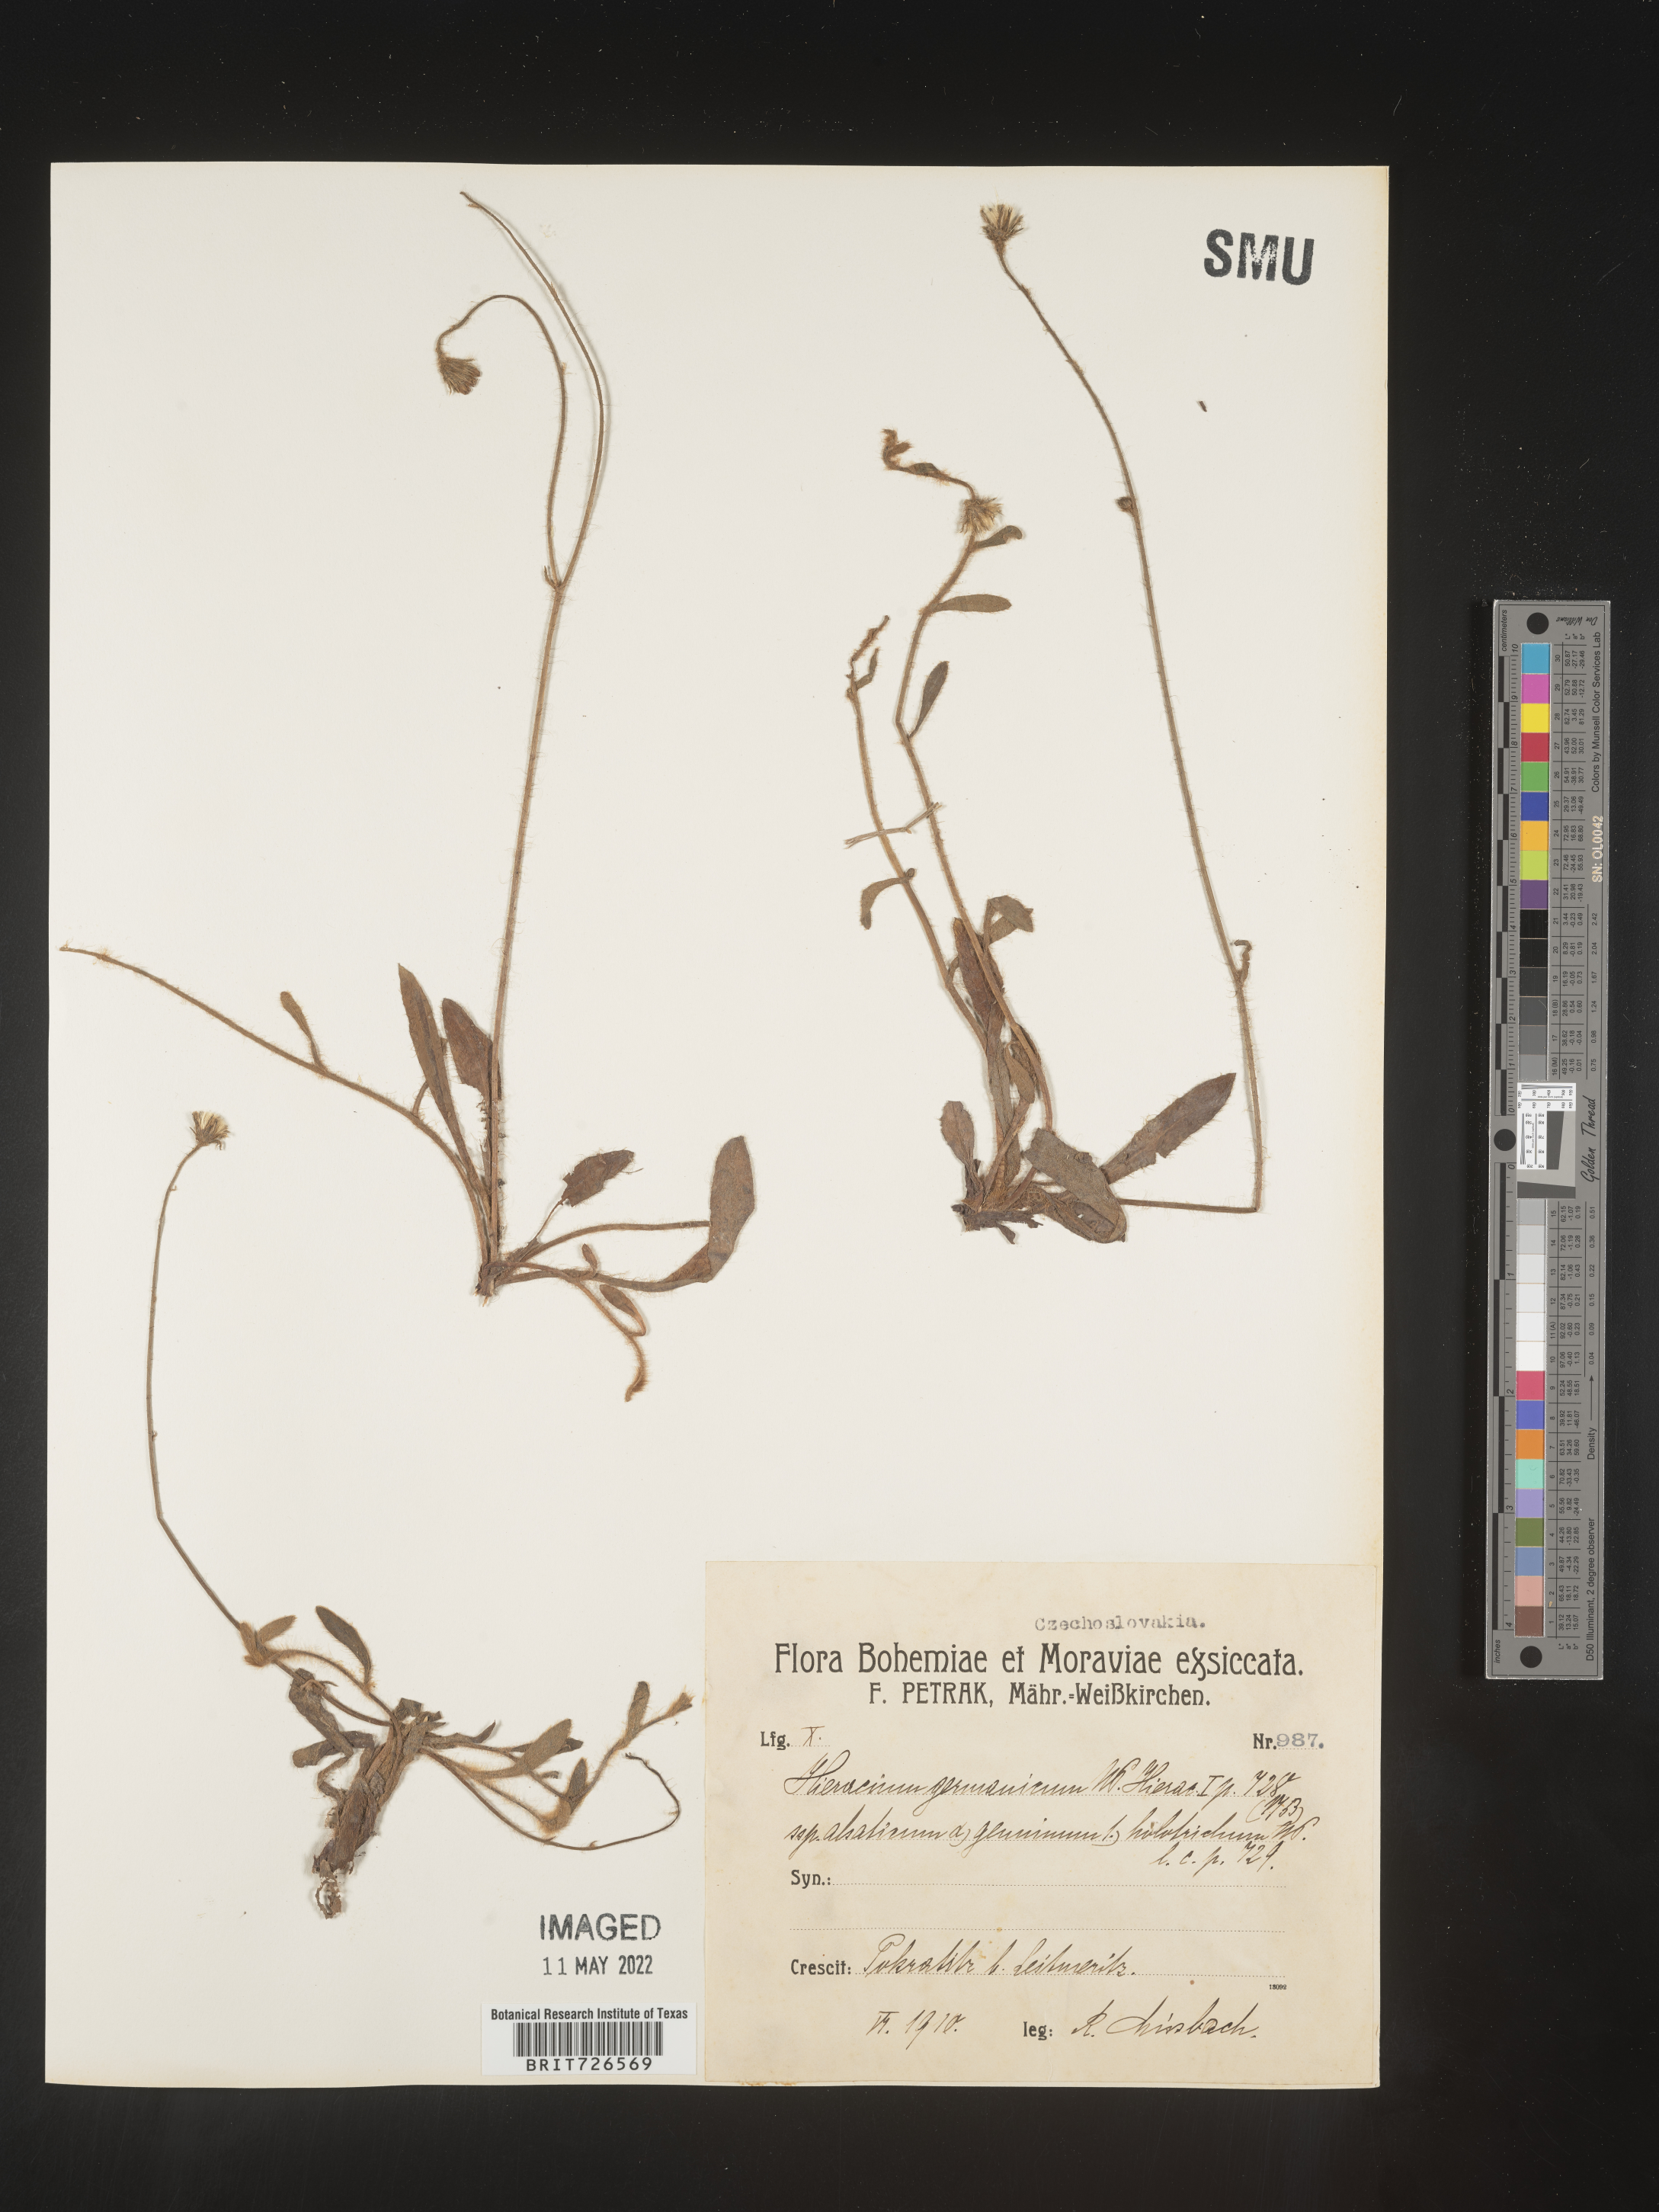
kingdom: Plantae
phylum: Tracheophyta
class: Magnoliopsida
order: Asterales
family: Asteraceae
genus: Hieracium
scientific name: Hieracium
